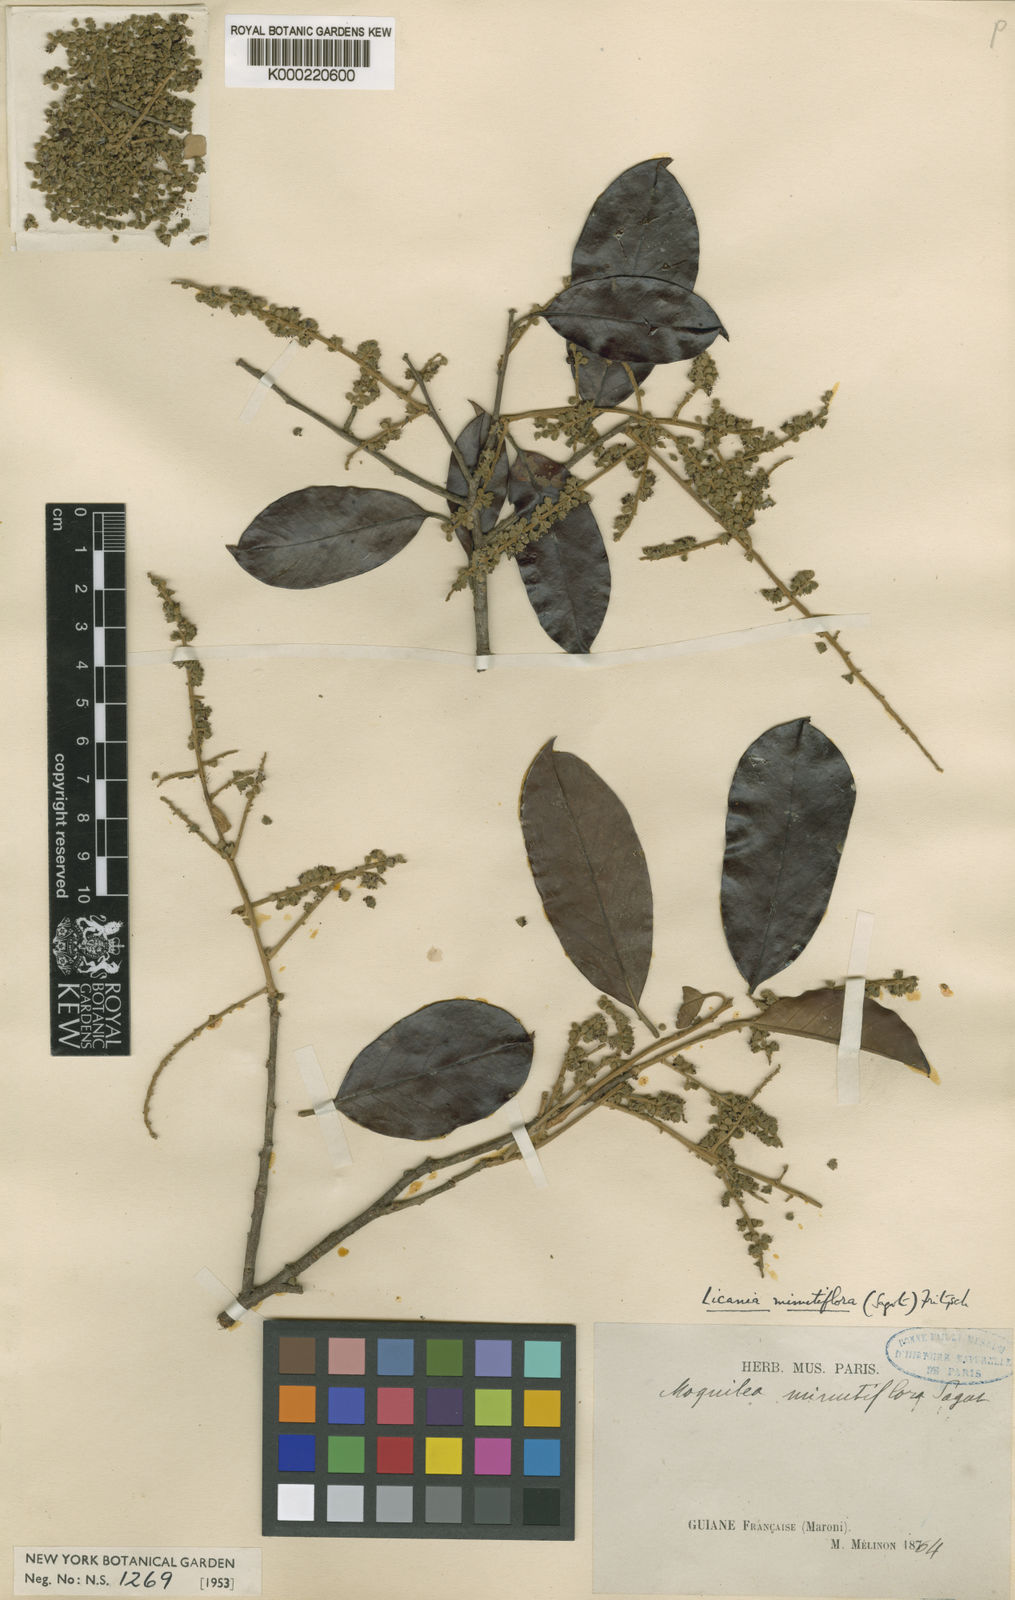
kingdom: Plantae
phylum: Tracheophyta
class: Magnoliopsida
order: Malpighiales
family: Chrysobalanaceae
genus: Moquilea
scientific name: Moquilea minutiflora
